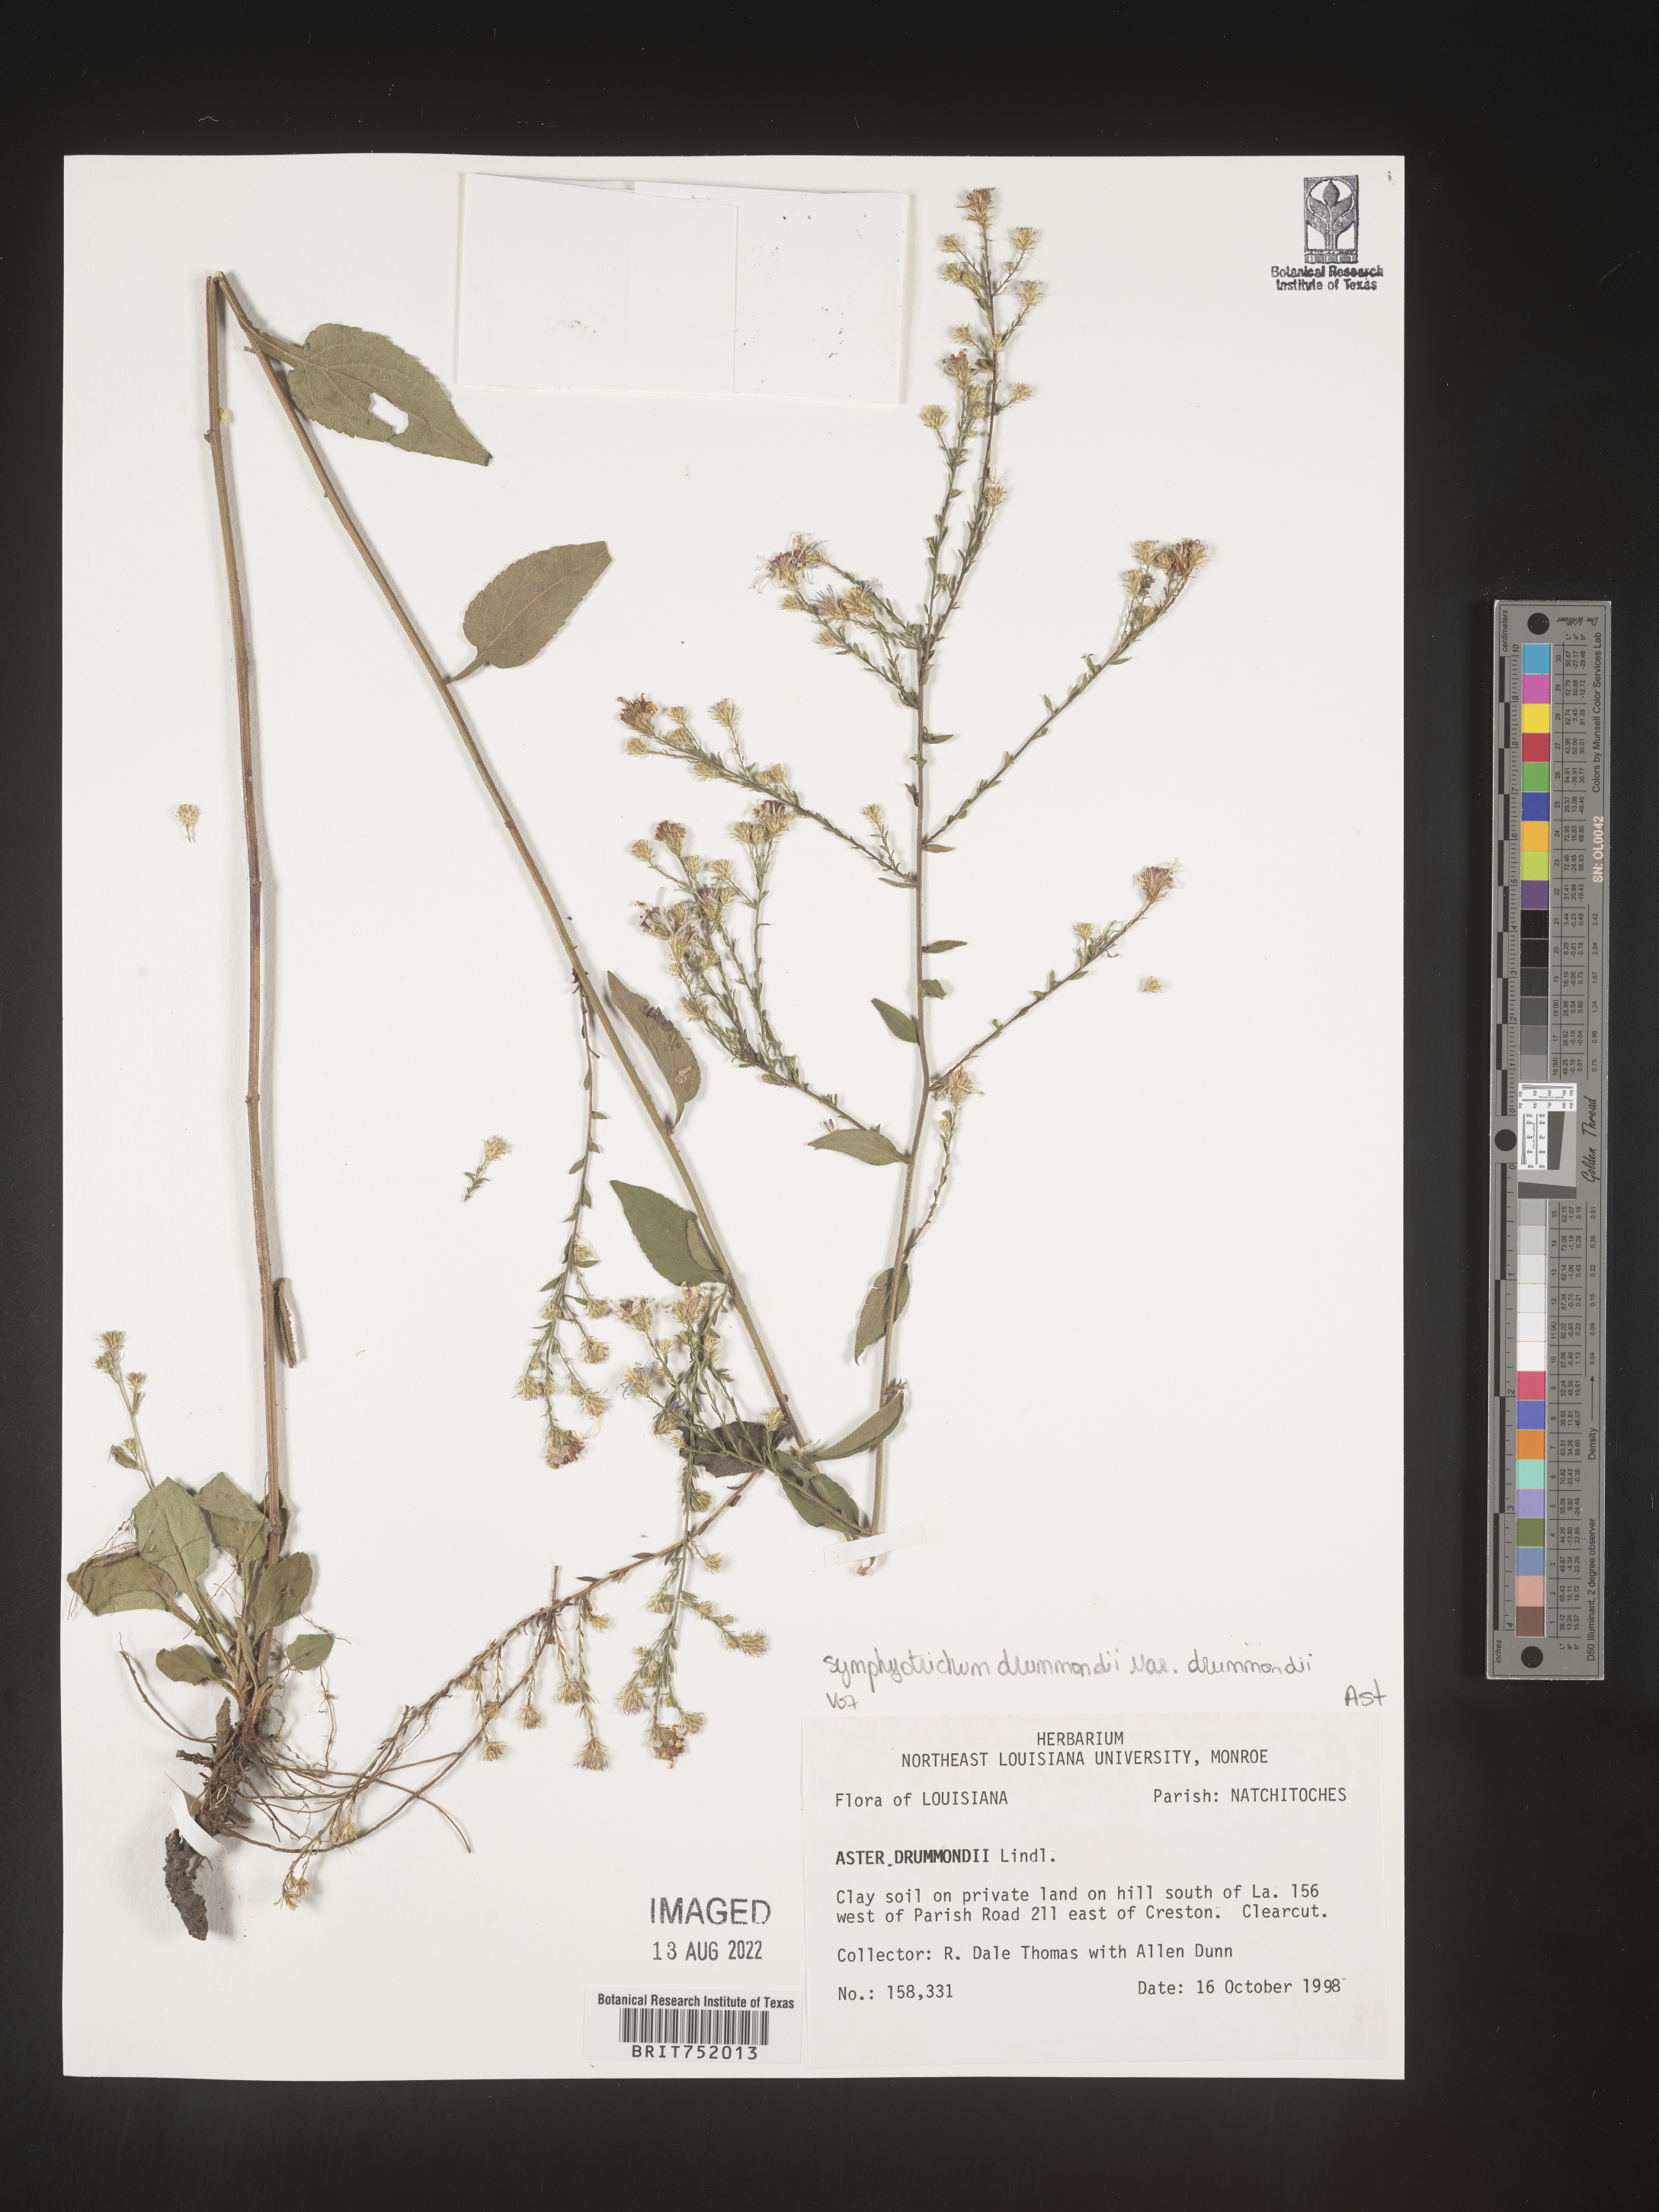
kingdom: Plantae
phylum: Tracheophyta
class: Magnoliopsida
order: Asterales
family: Asteraceae
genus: Symphyotrichum
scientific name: Symphyotrichum drummondii
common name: Drummond's aster
